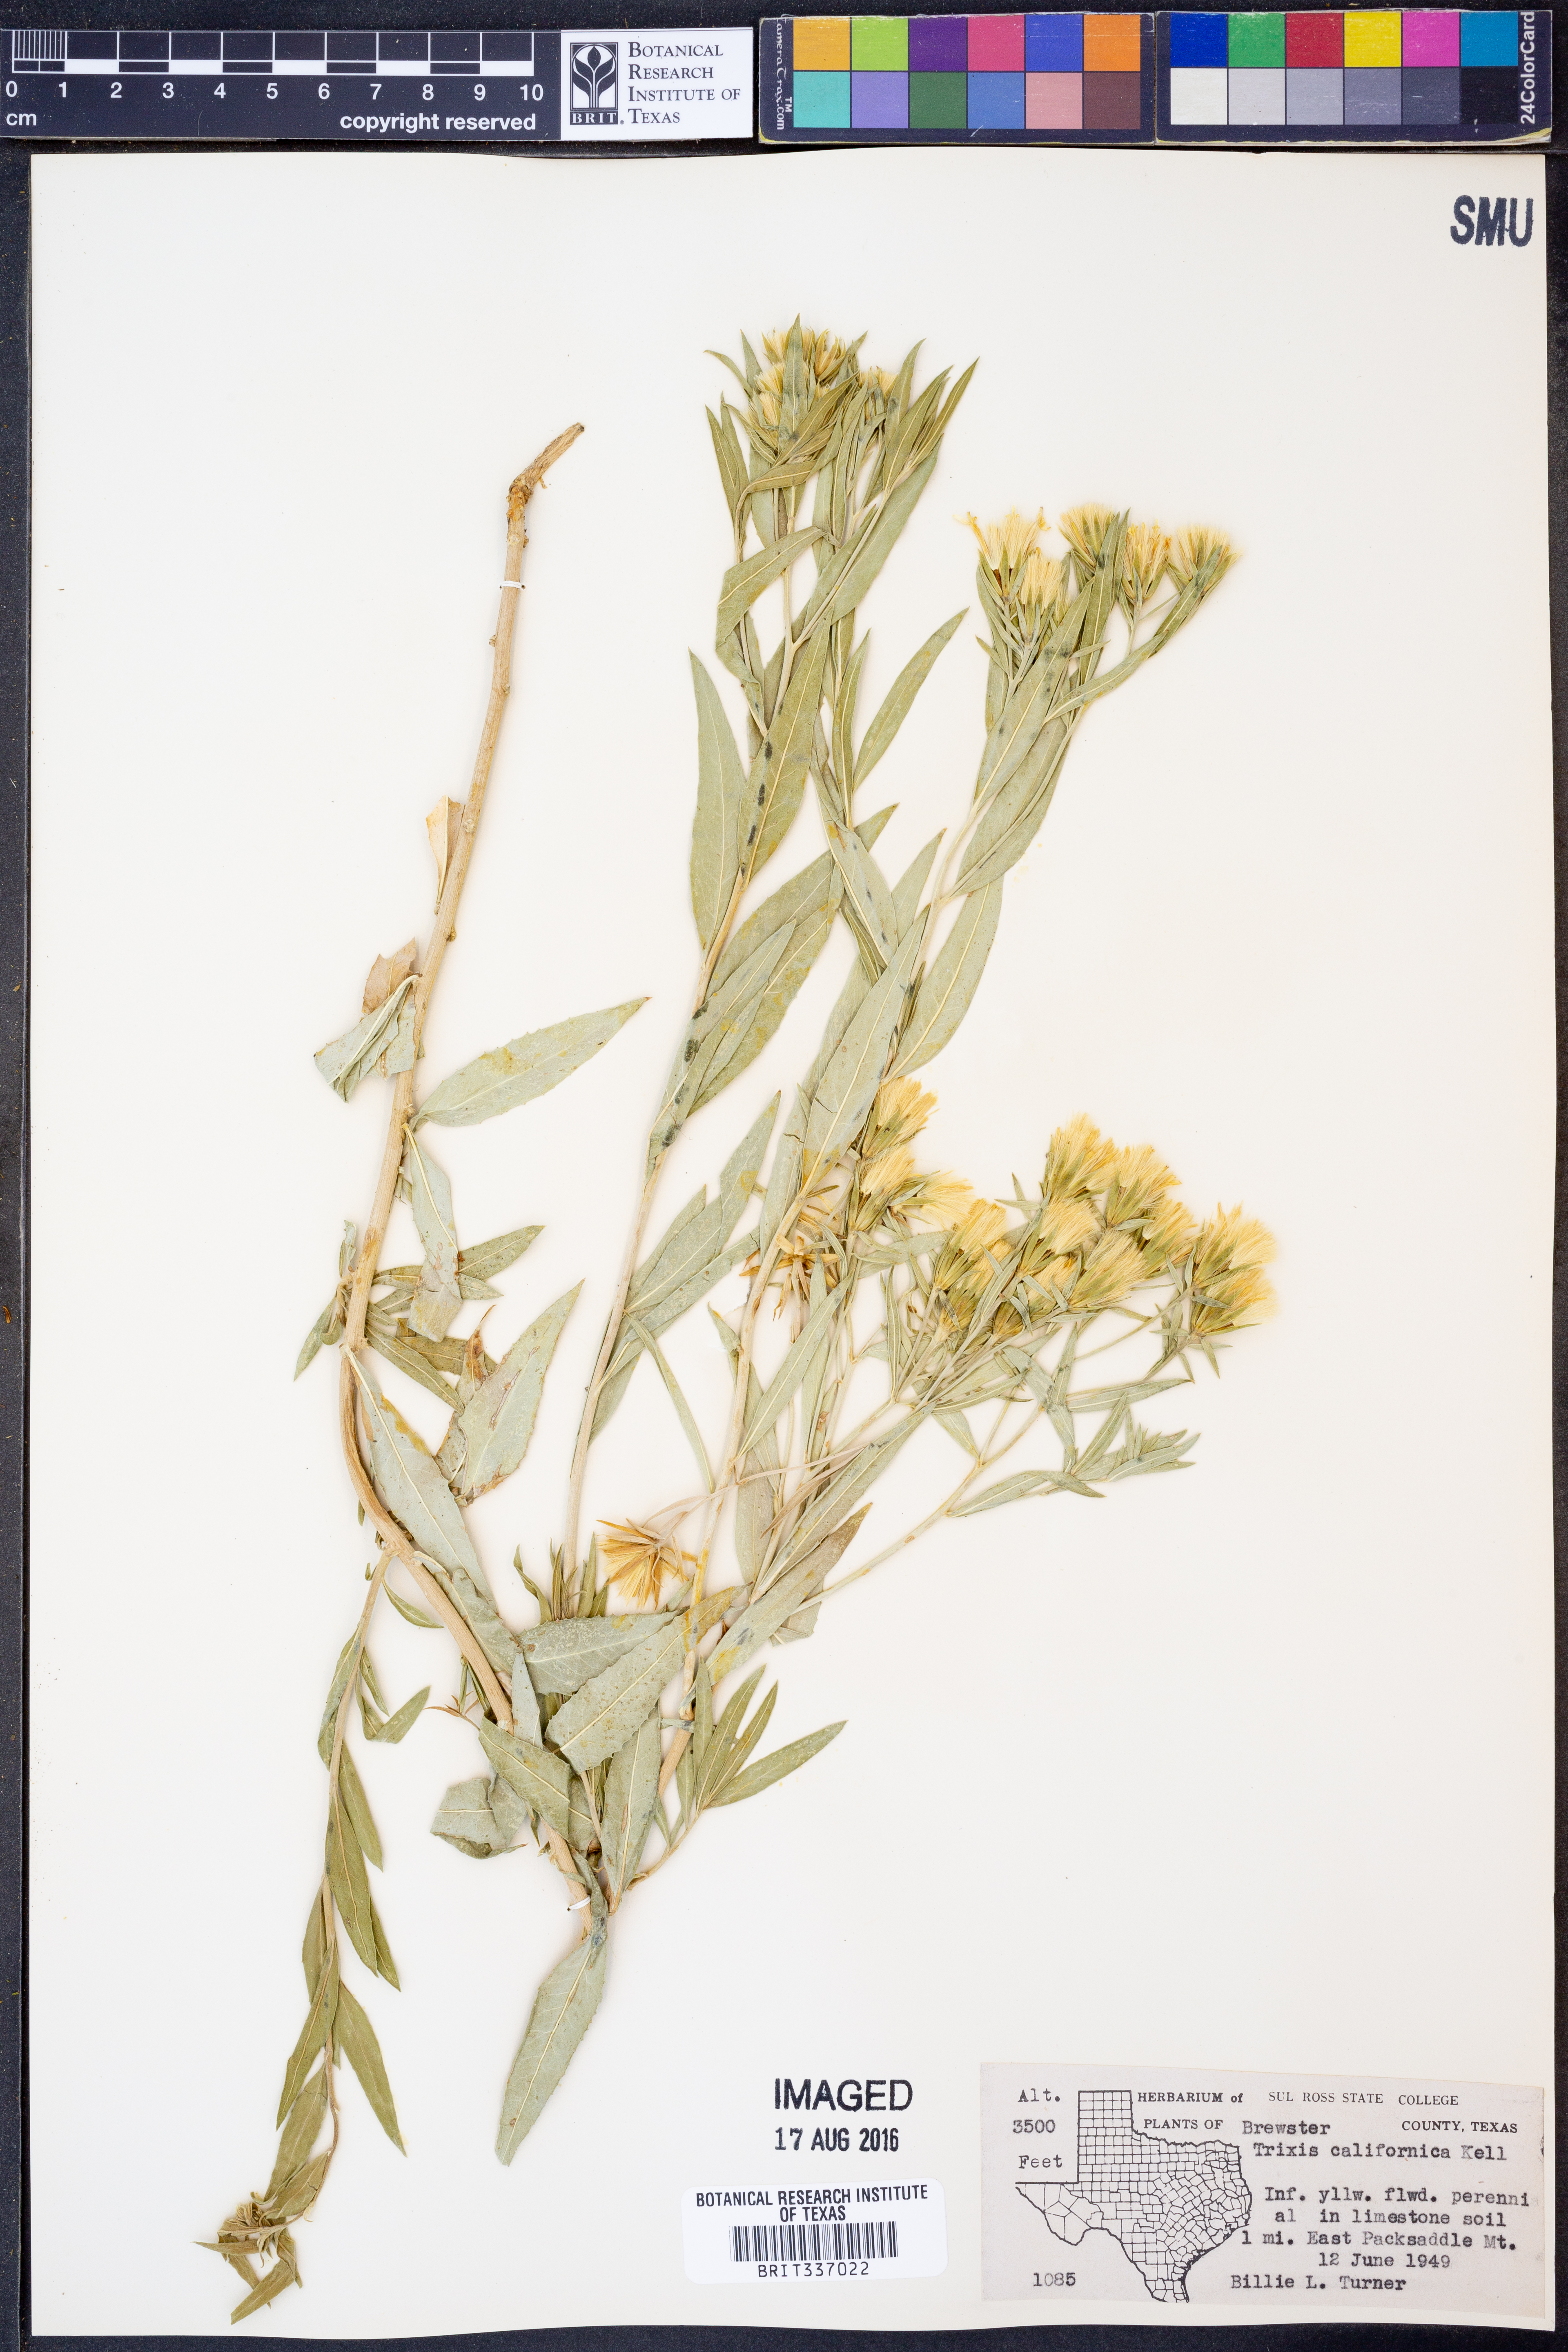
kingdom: Plantae
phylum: Tracheophyta
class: Magnoliopsida
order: Asterales
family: Asteraceae
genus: Trixis
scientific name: Trixis californica
